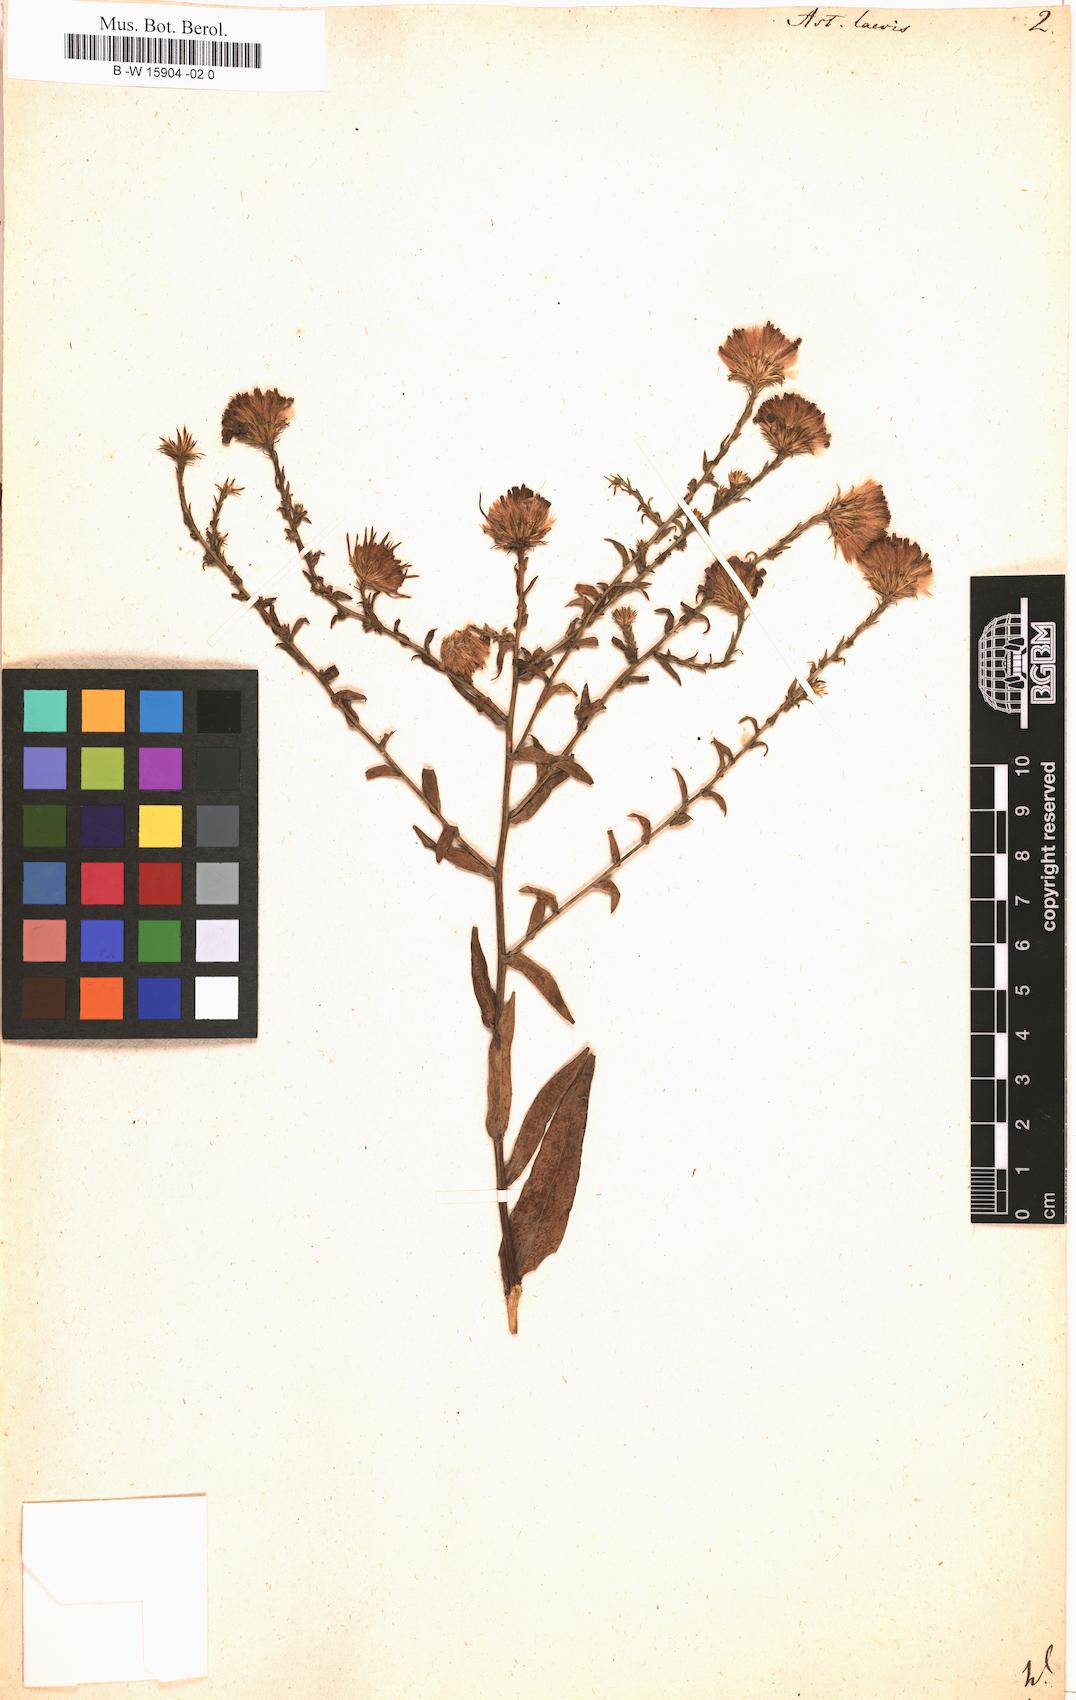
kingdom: Plantae
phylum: Tracheophyta
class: Magnoliopsida
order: Asterales
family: Asteraceae
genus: Symphyotrichum
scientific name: Symphyotrichum laeve
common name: Glaucous aster
